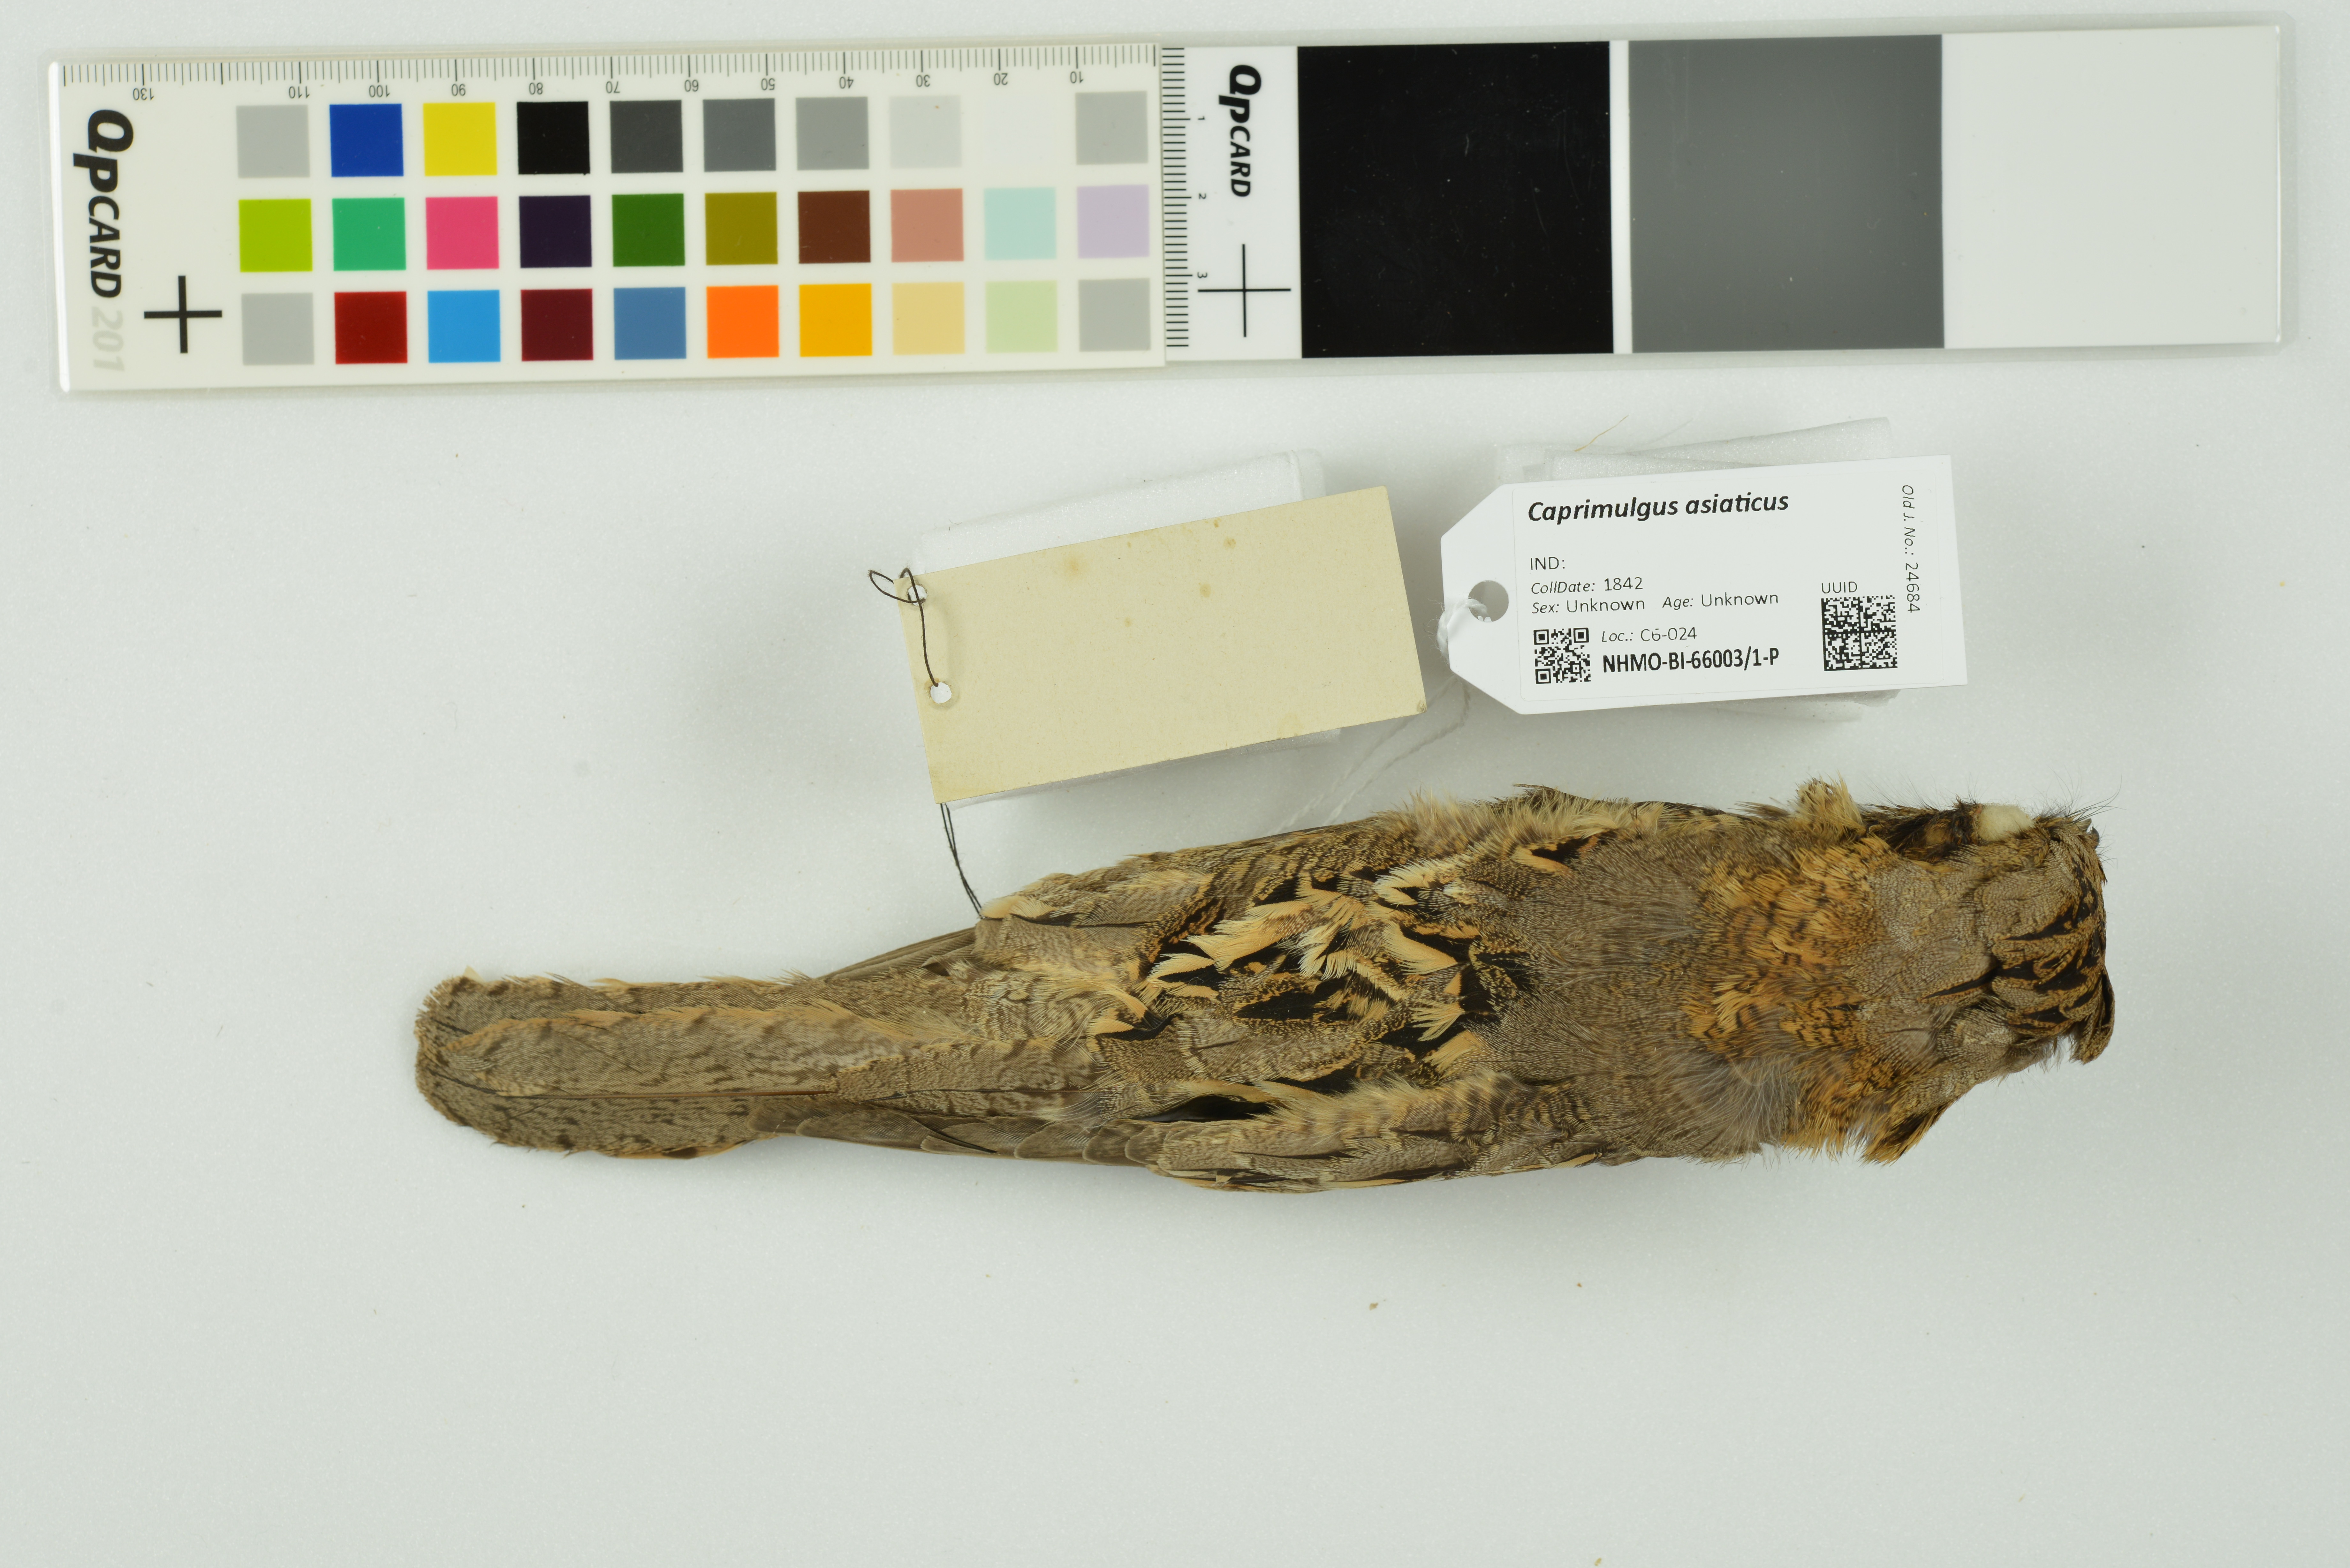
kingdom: Animalia
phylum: Chordata
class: Aves
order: Caprimulgiformes
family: Caprimulgidae
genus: Caprimulgus
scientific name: Caprimulgus asiaticus
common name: Indian nightjar
